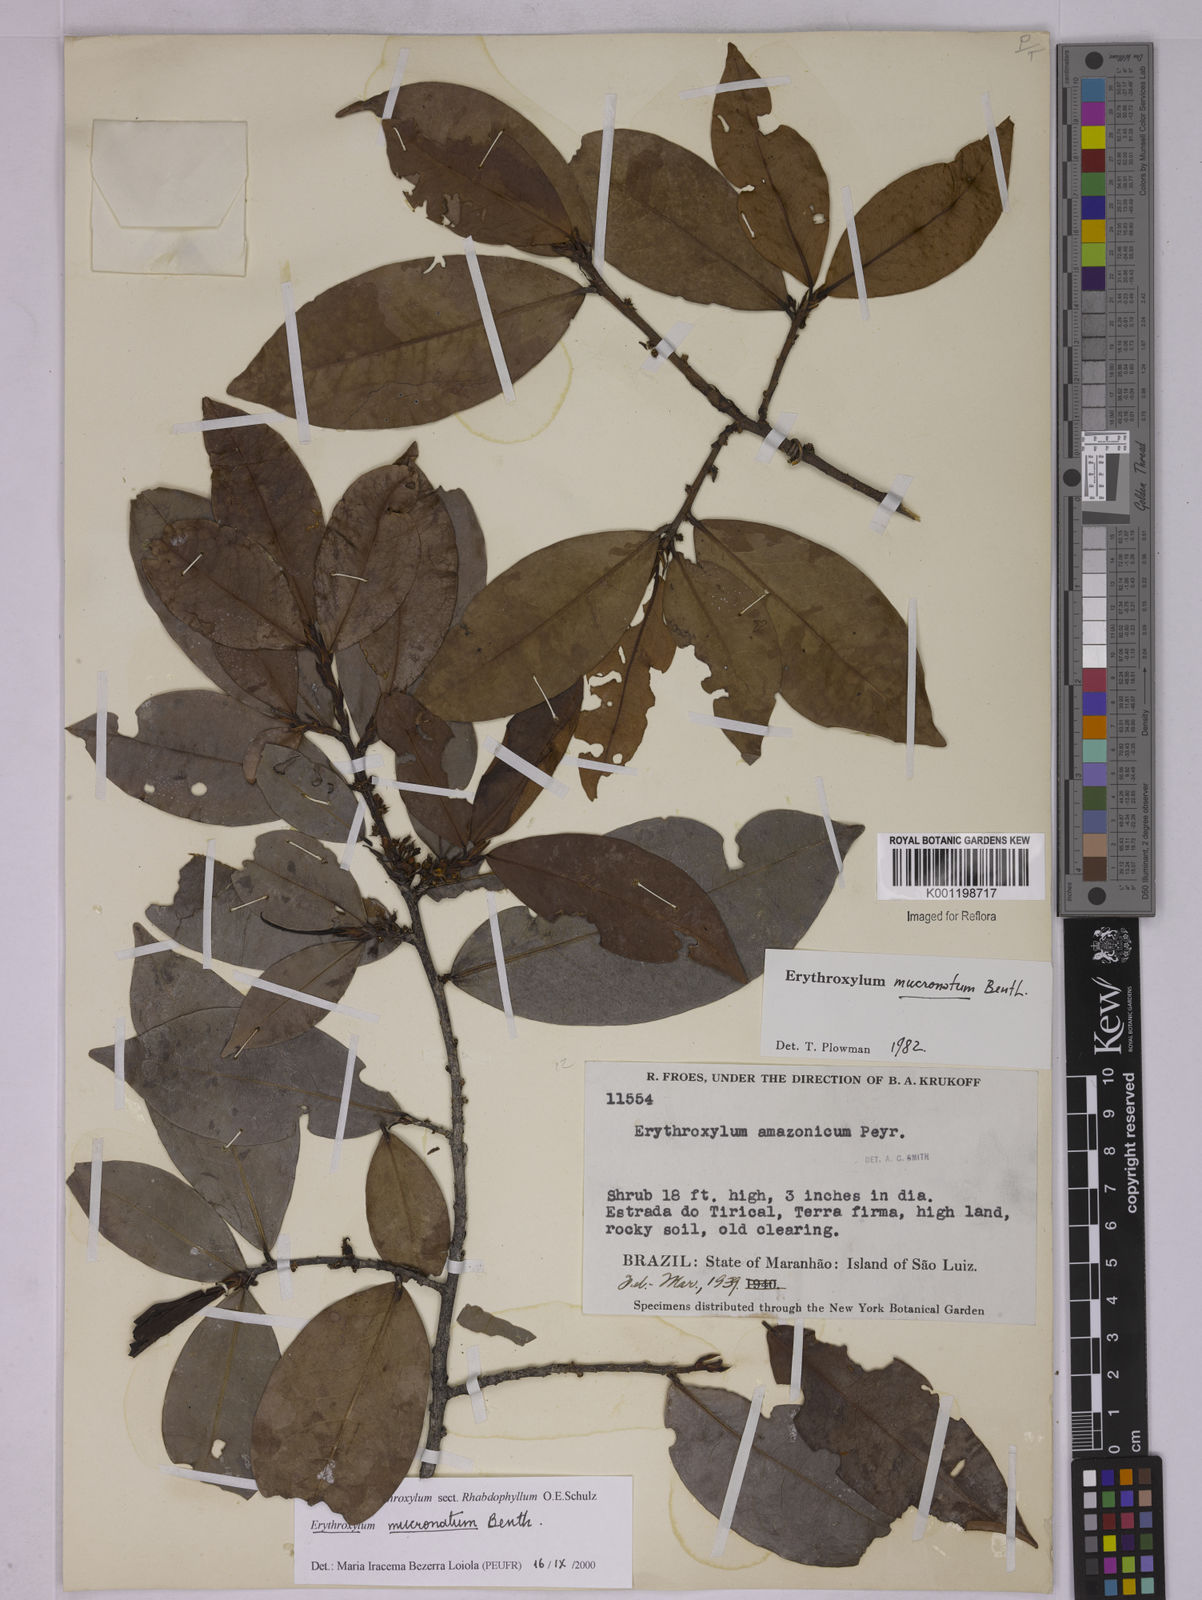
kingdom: Plantae
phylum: Tracheophyta
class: Magnoliopsida
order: Malpighiales
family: Erythroxylaceae
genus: Erythroxylum
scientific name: Erythroxylum mucronatum
